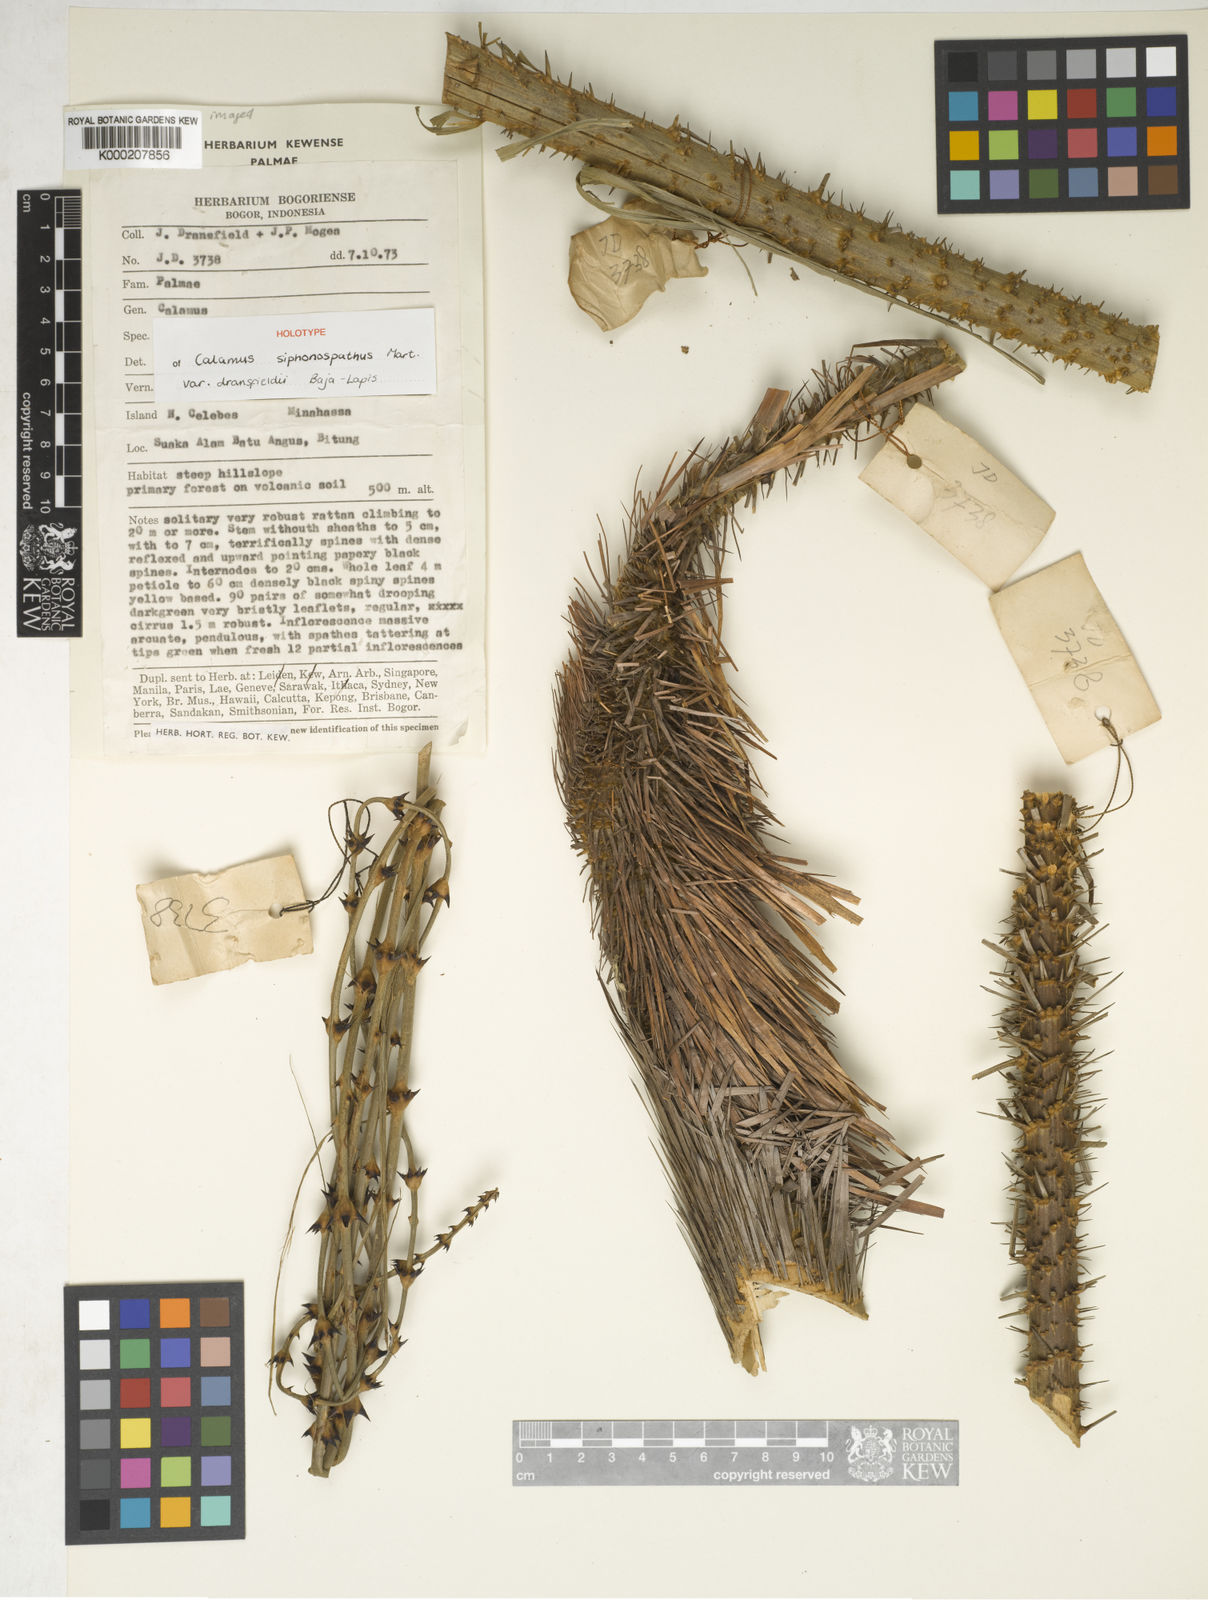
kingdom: Plantae
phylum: Tracheophyta
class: Liliopsida
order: Arecales
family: Arecaceae
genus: Calamus
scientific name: Calamus siphonospathus
